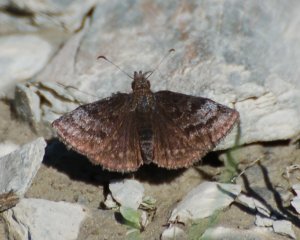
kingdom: Animalia
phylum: Arthropoda
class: Insecta
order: Lepidoptera
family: Hesperiidae
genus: Erynnis
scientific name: Erynnis icelus
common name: Dreamy Duskywing
